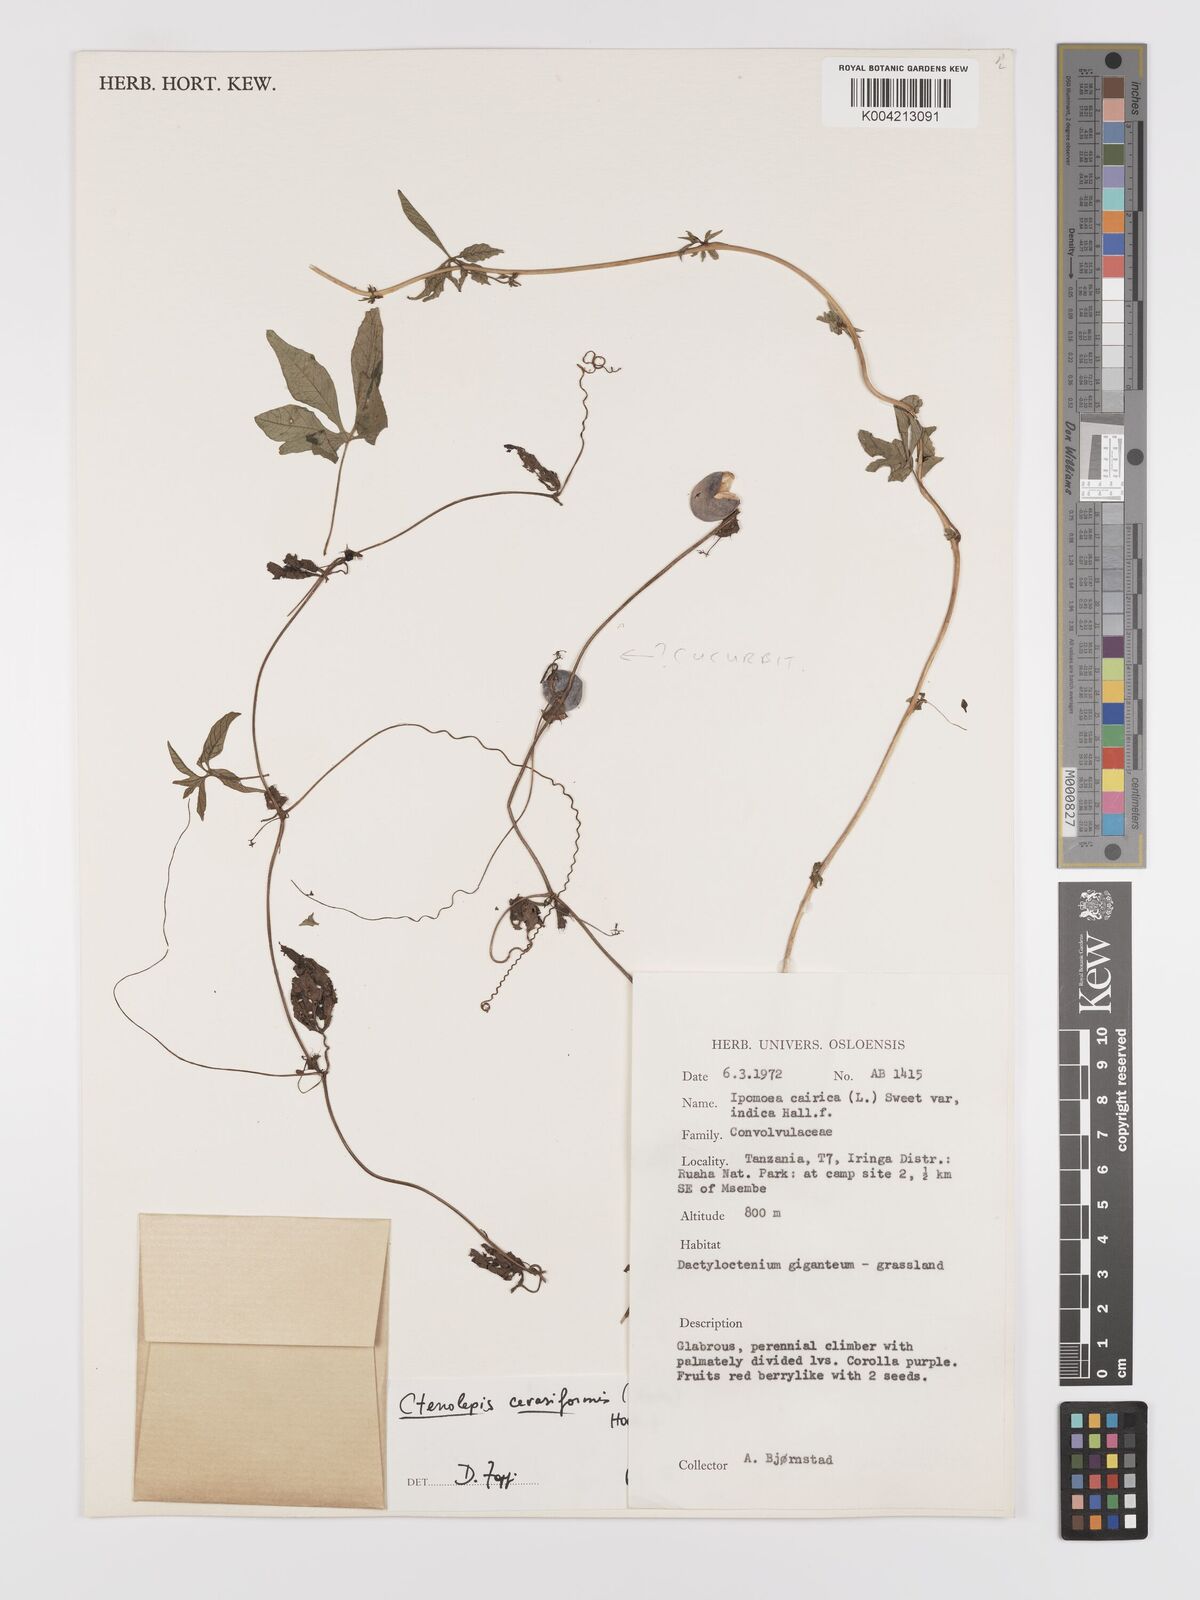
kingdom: Plantae
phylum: Tracheophyta
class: Magnoliopsida
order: Cucurbitales
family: Cucurbitaceae
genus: Blastania
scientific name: Blastania cerasiformis
